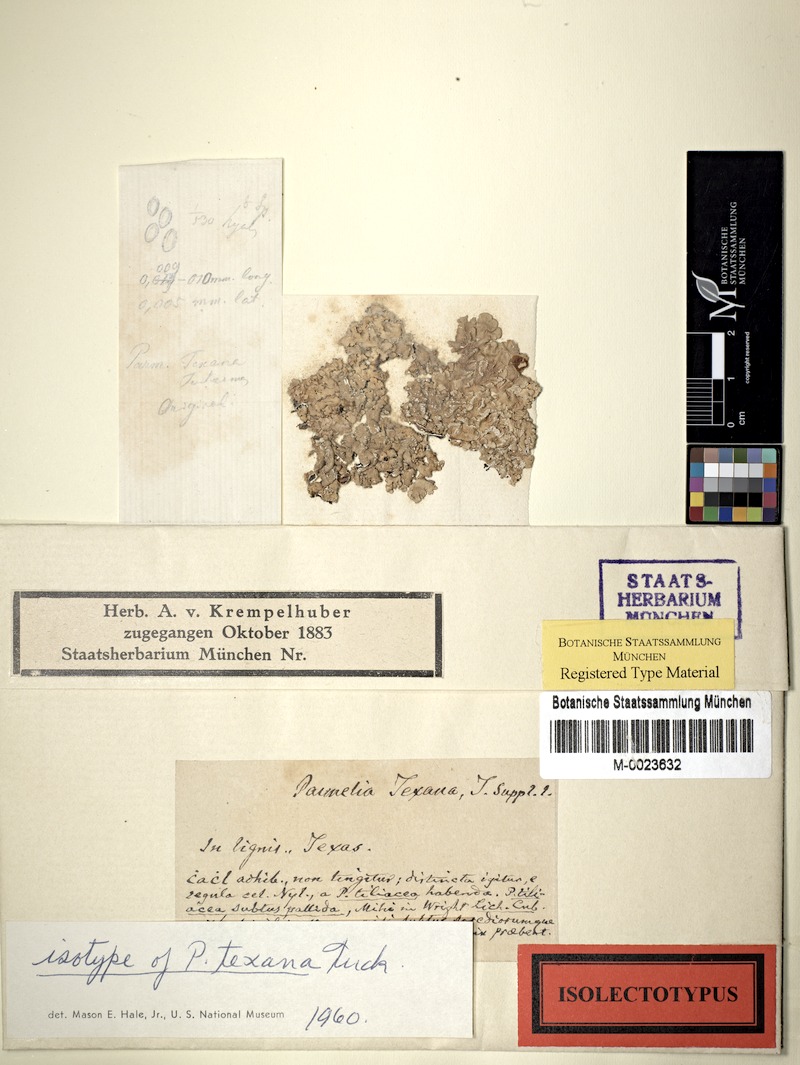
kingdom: Fungi
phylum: Ascomycota
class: Lecanoromycetes
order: Lecanorales
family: Parmeliaceae
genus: Canoparmelia
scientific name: Canoparmelia texana
